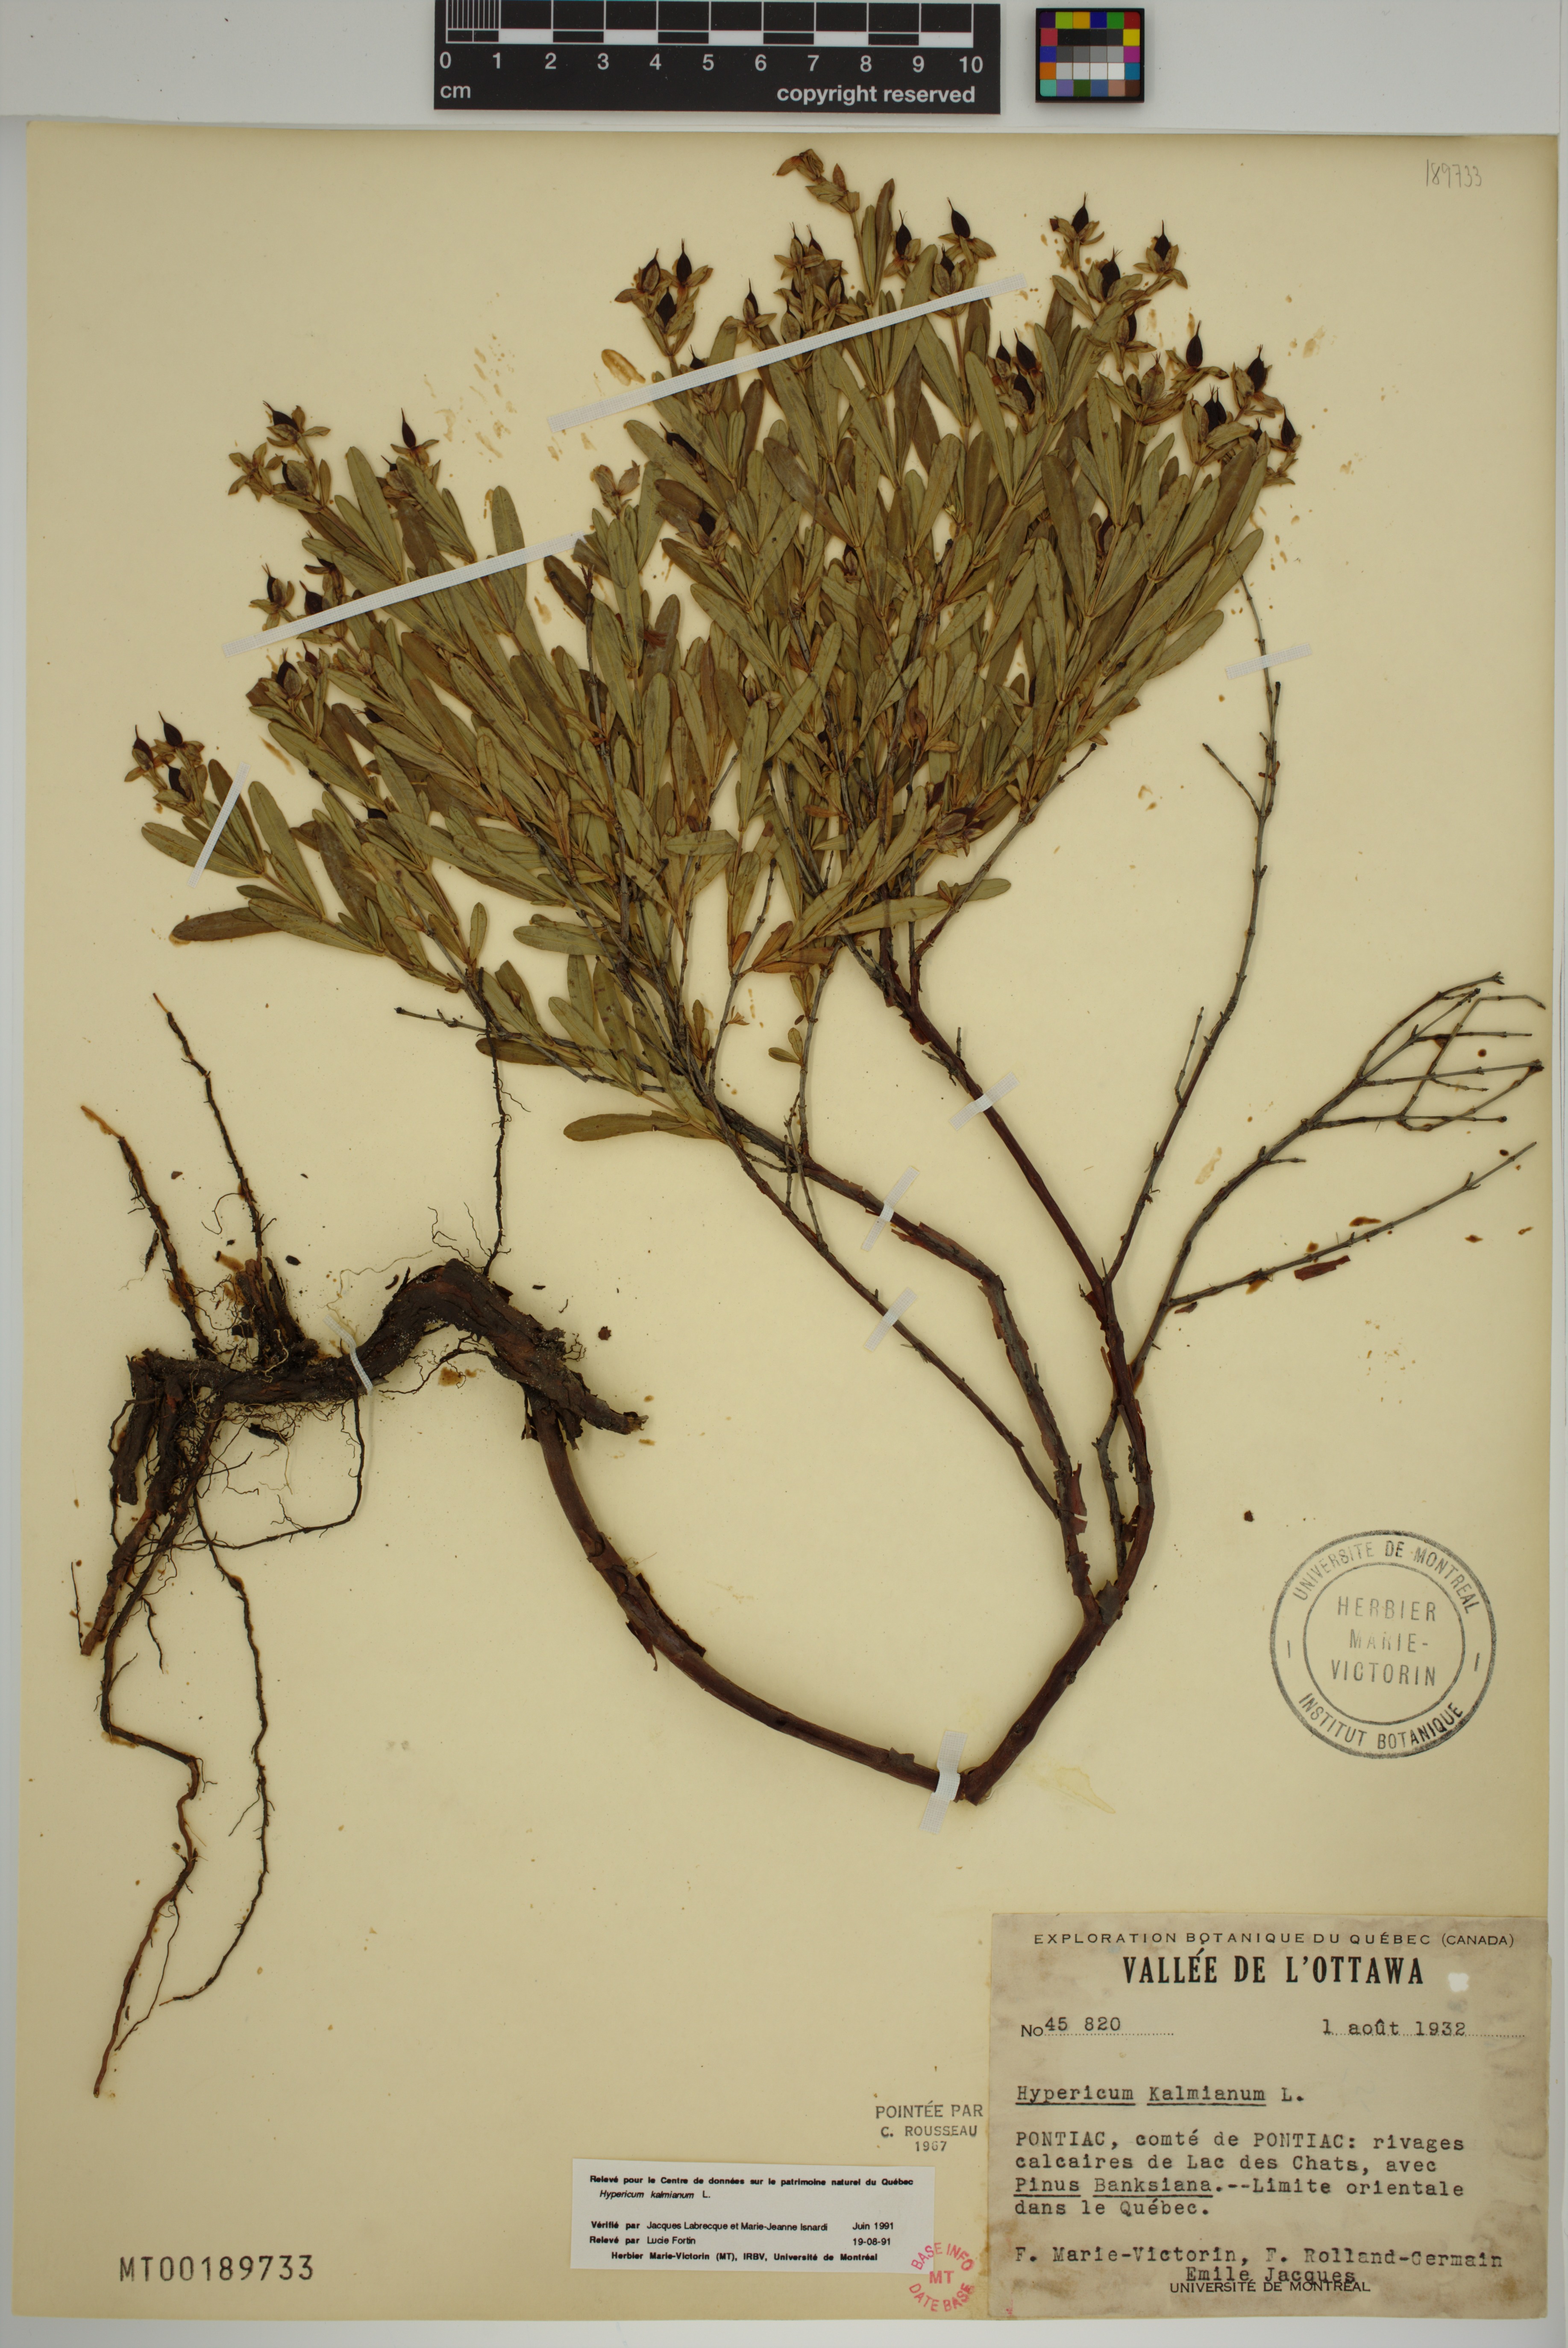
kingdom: Plantae
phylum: Tracheophyta
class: Magnoliopsida
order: Malpighiales
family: Hypericaceae
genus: Hypericum
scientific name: Hypericum kalmianum
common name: Kalm's st. john's-wort
